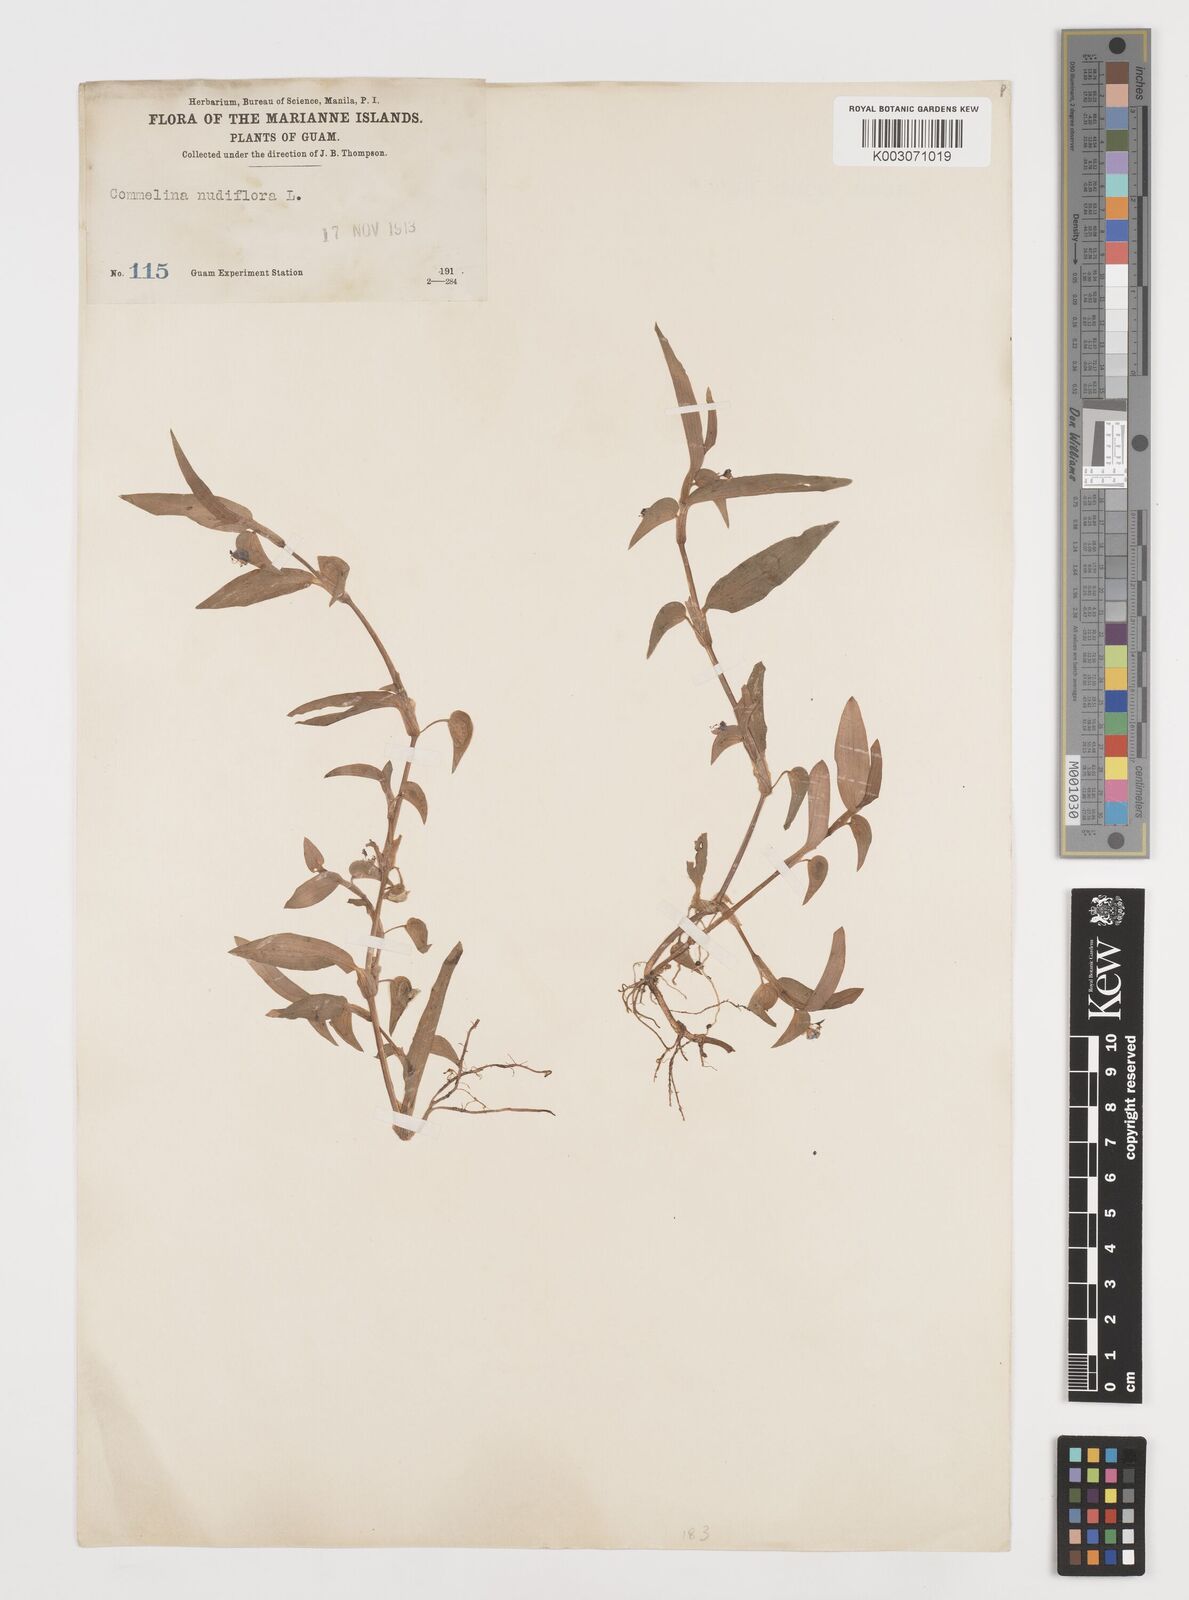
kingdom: Plantae
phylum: Tracheophyta
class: Liliopsida
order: Commelinales
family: Commelinaceae
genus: Commelina
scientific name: Commelina diffusa
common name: Climbing dayflower
